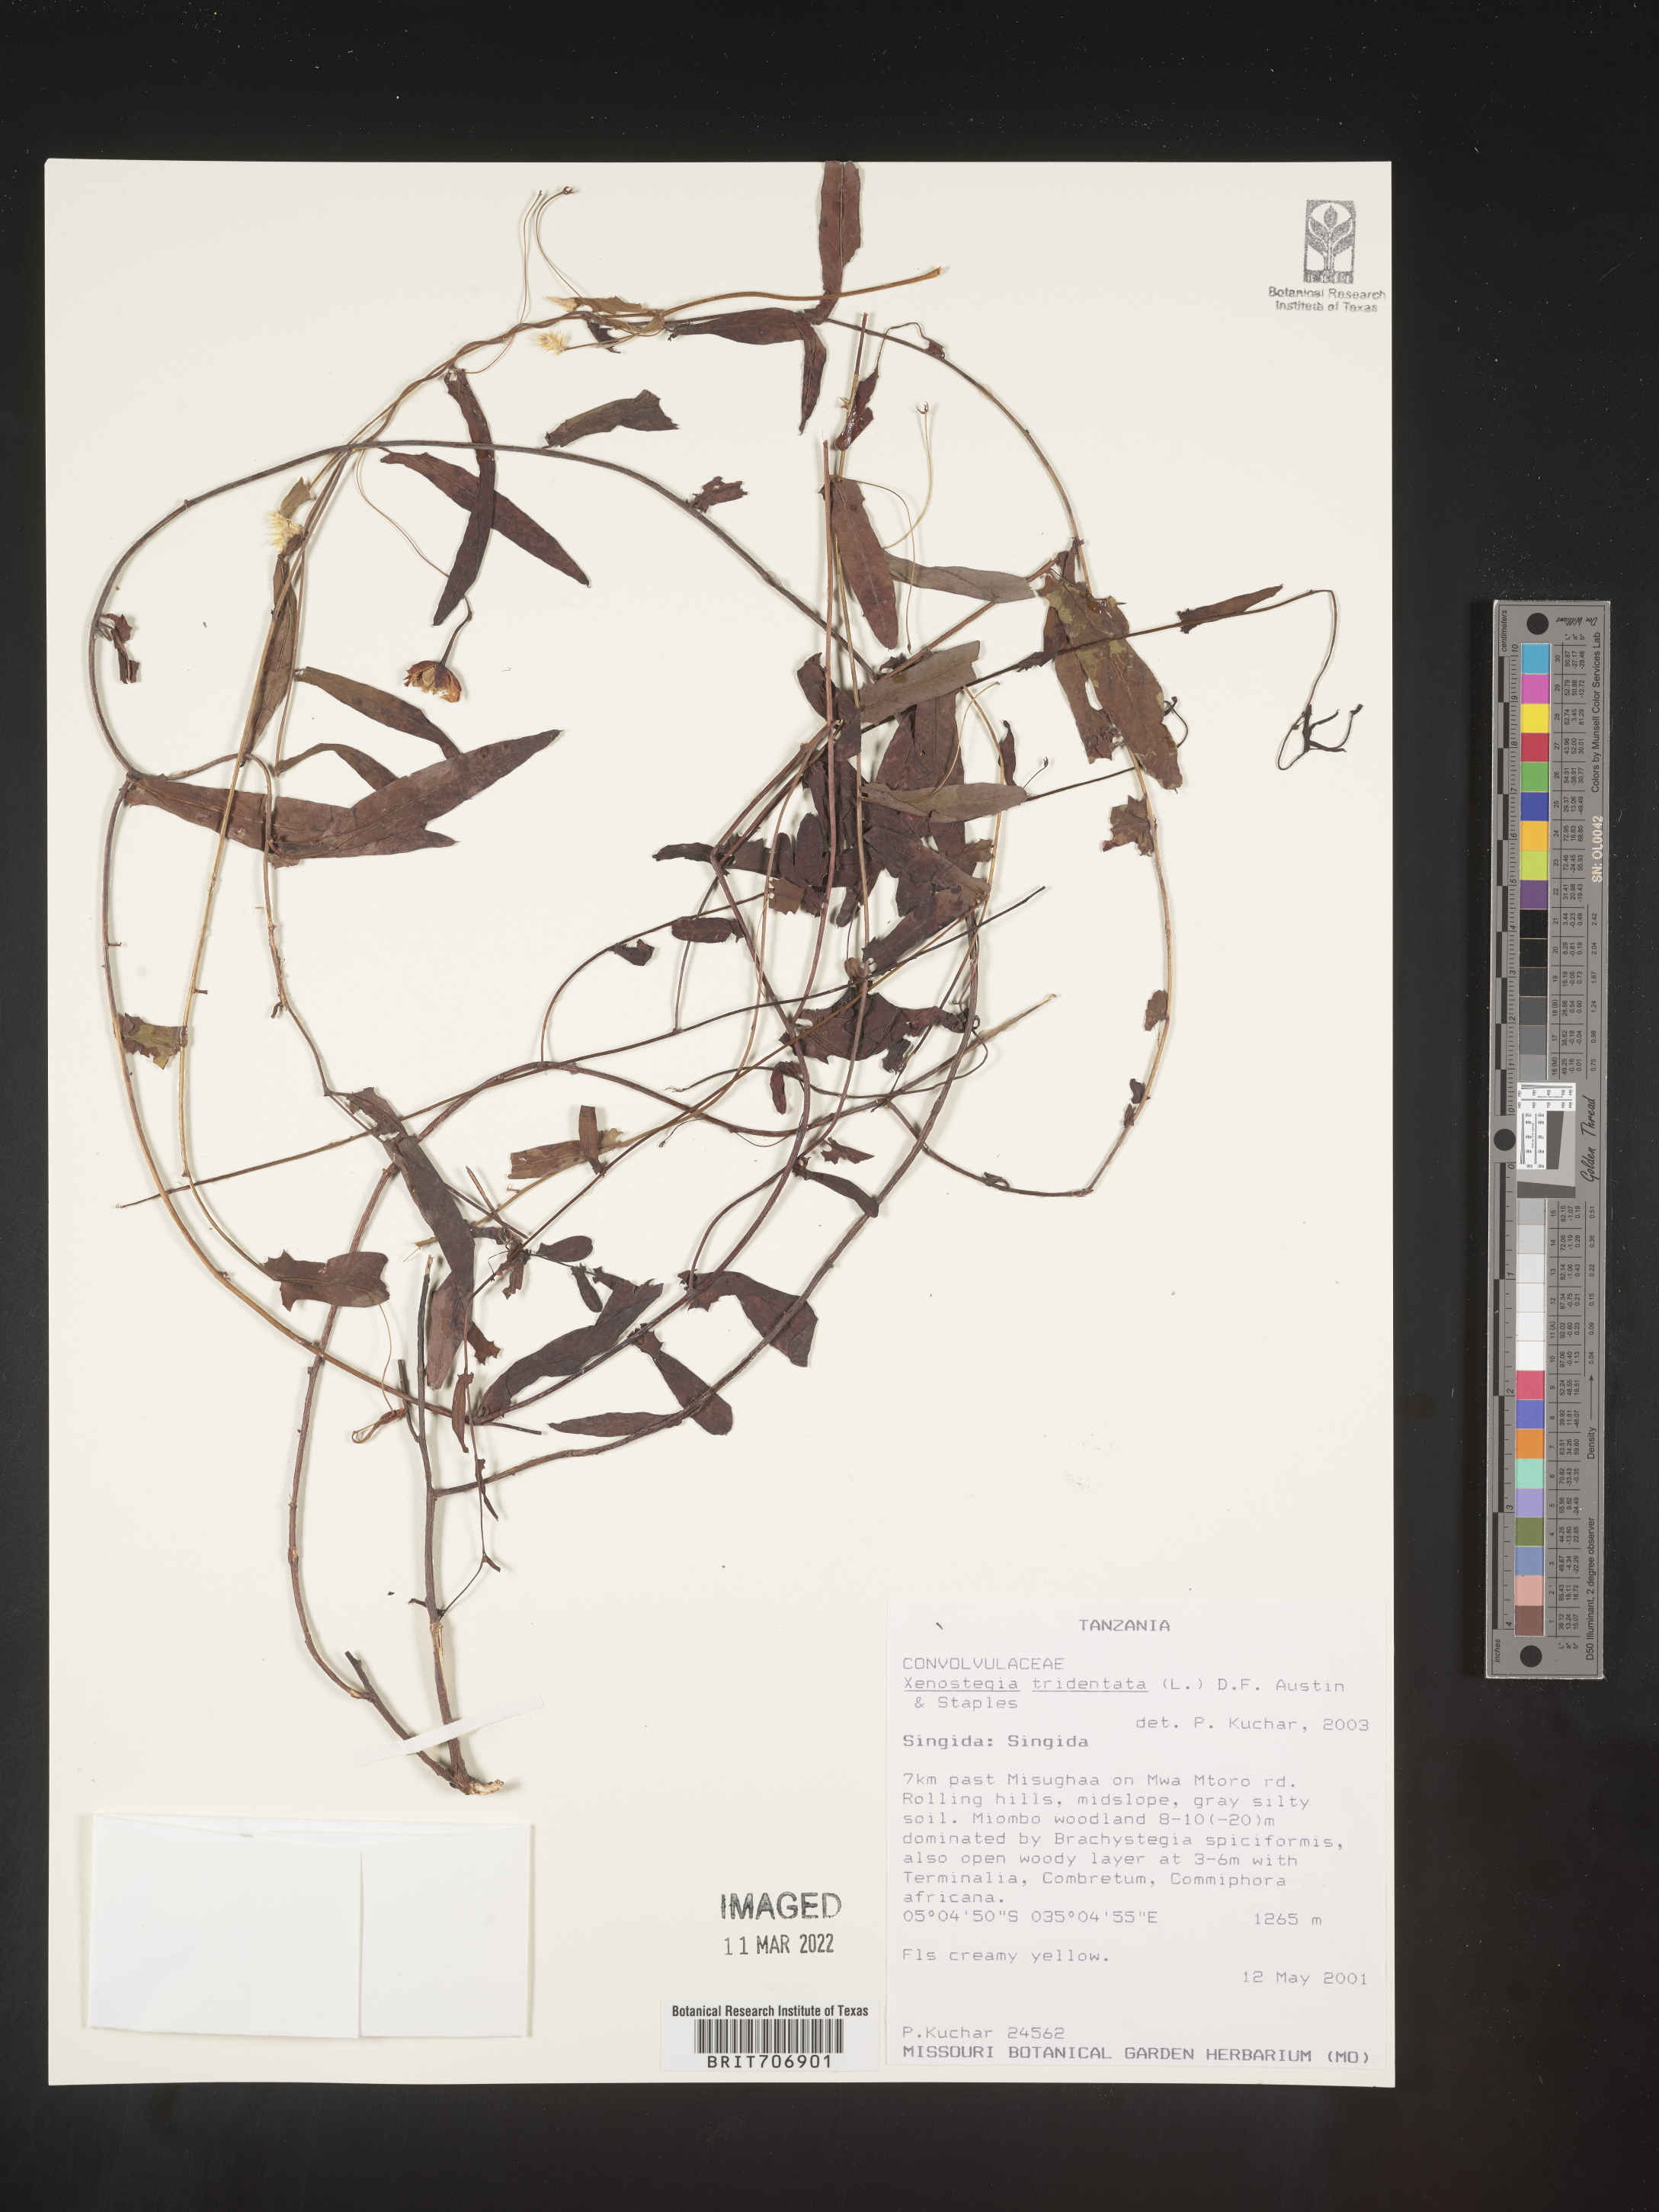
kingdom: Plantae
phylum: Tracheophyta
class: Magnoliopsida
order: Solanales
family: Convolvulaceae
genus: Xenostegia
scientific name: Xenostegia
